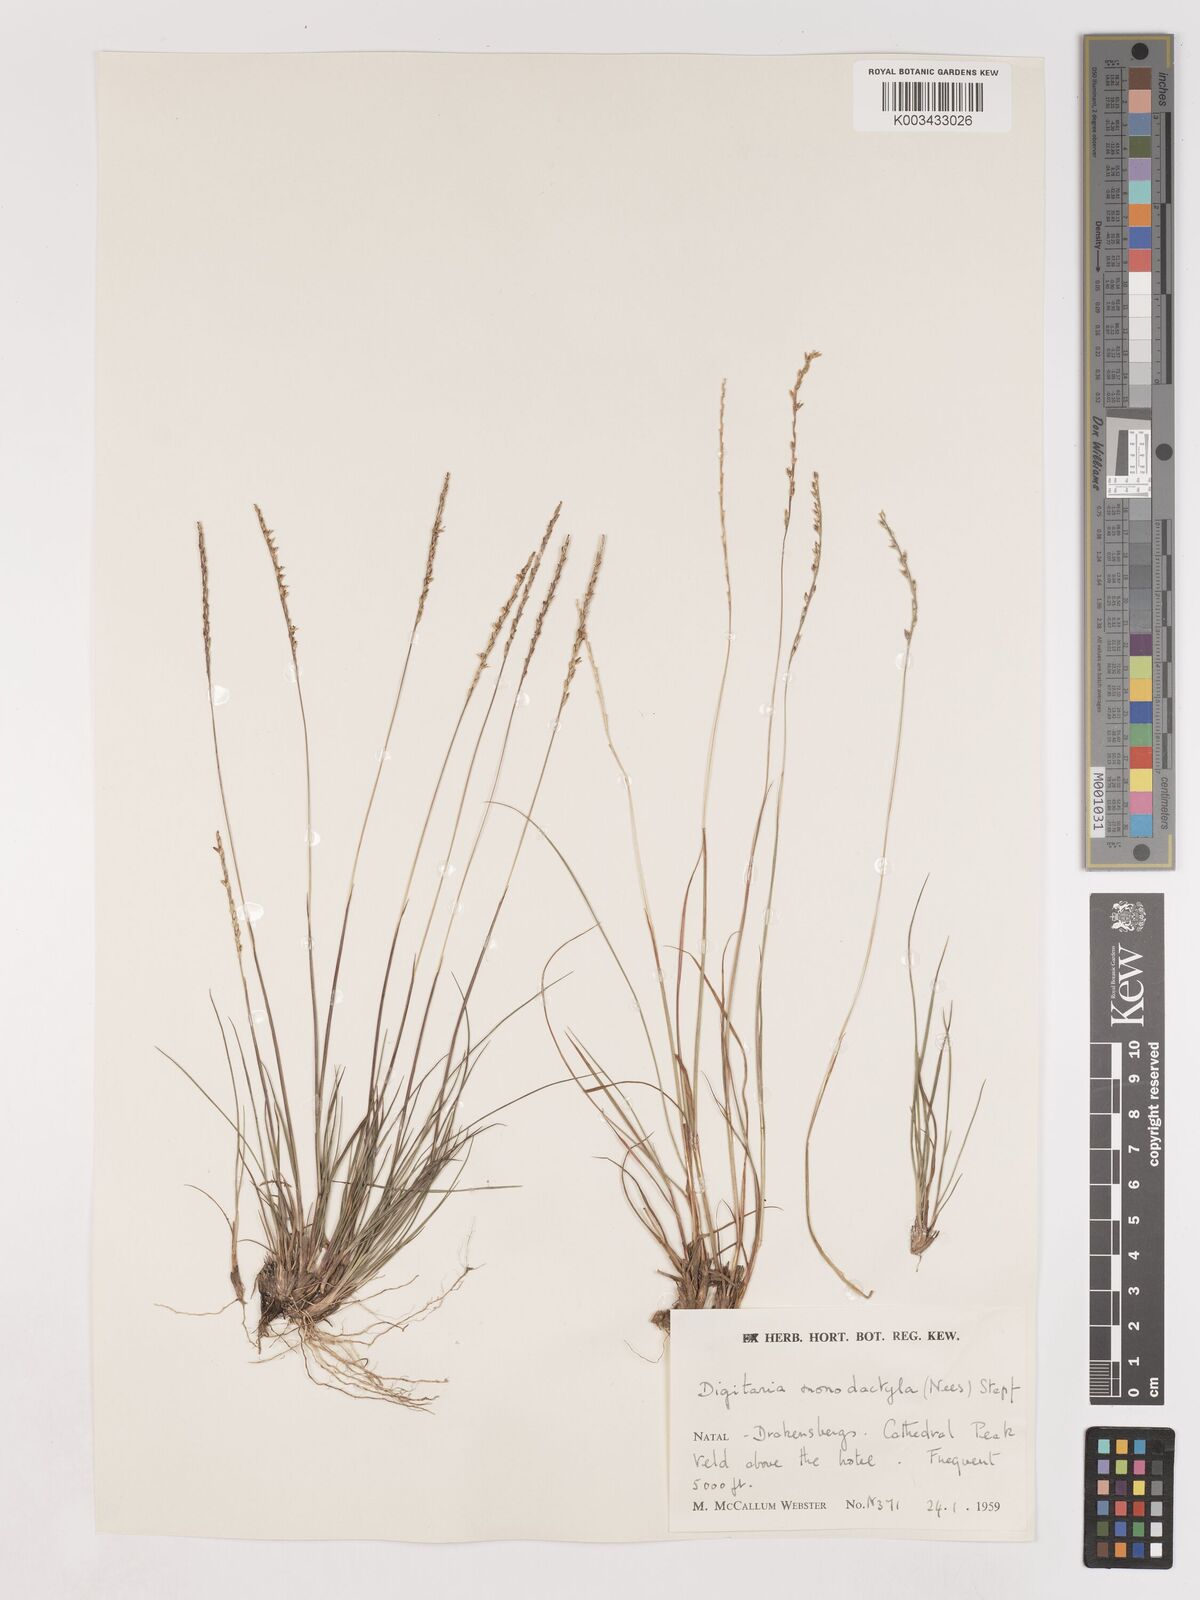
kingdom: Plantae
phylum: Tracheophyta
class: Liliopsida
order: Poales
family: Poaceae
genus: Digitaria
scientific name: Digitaria monodactyla
